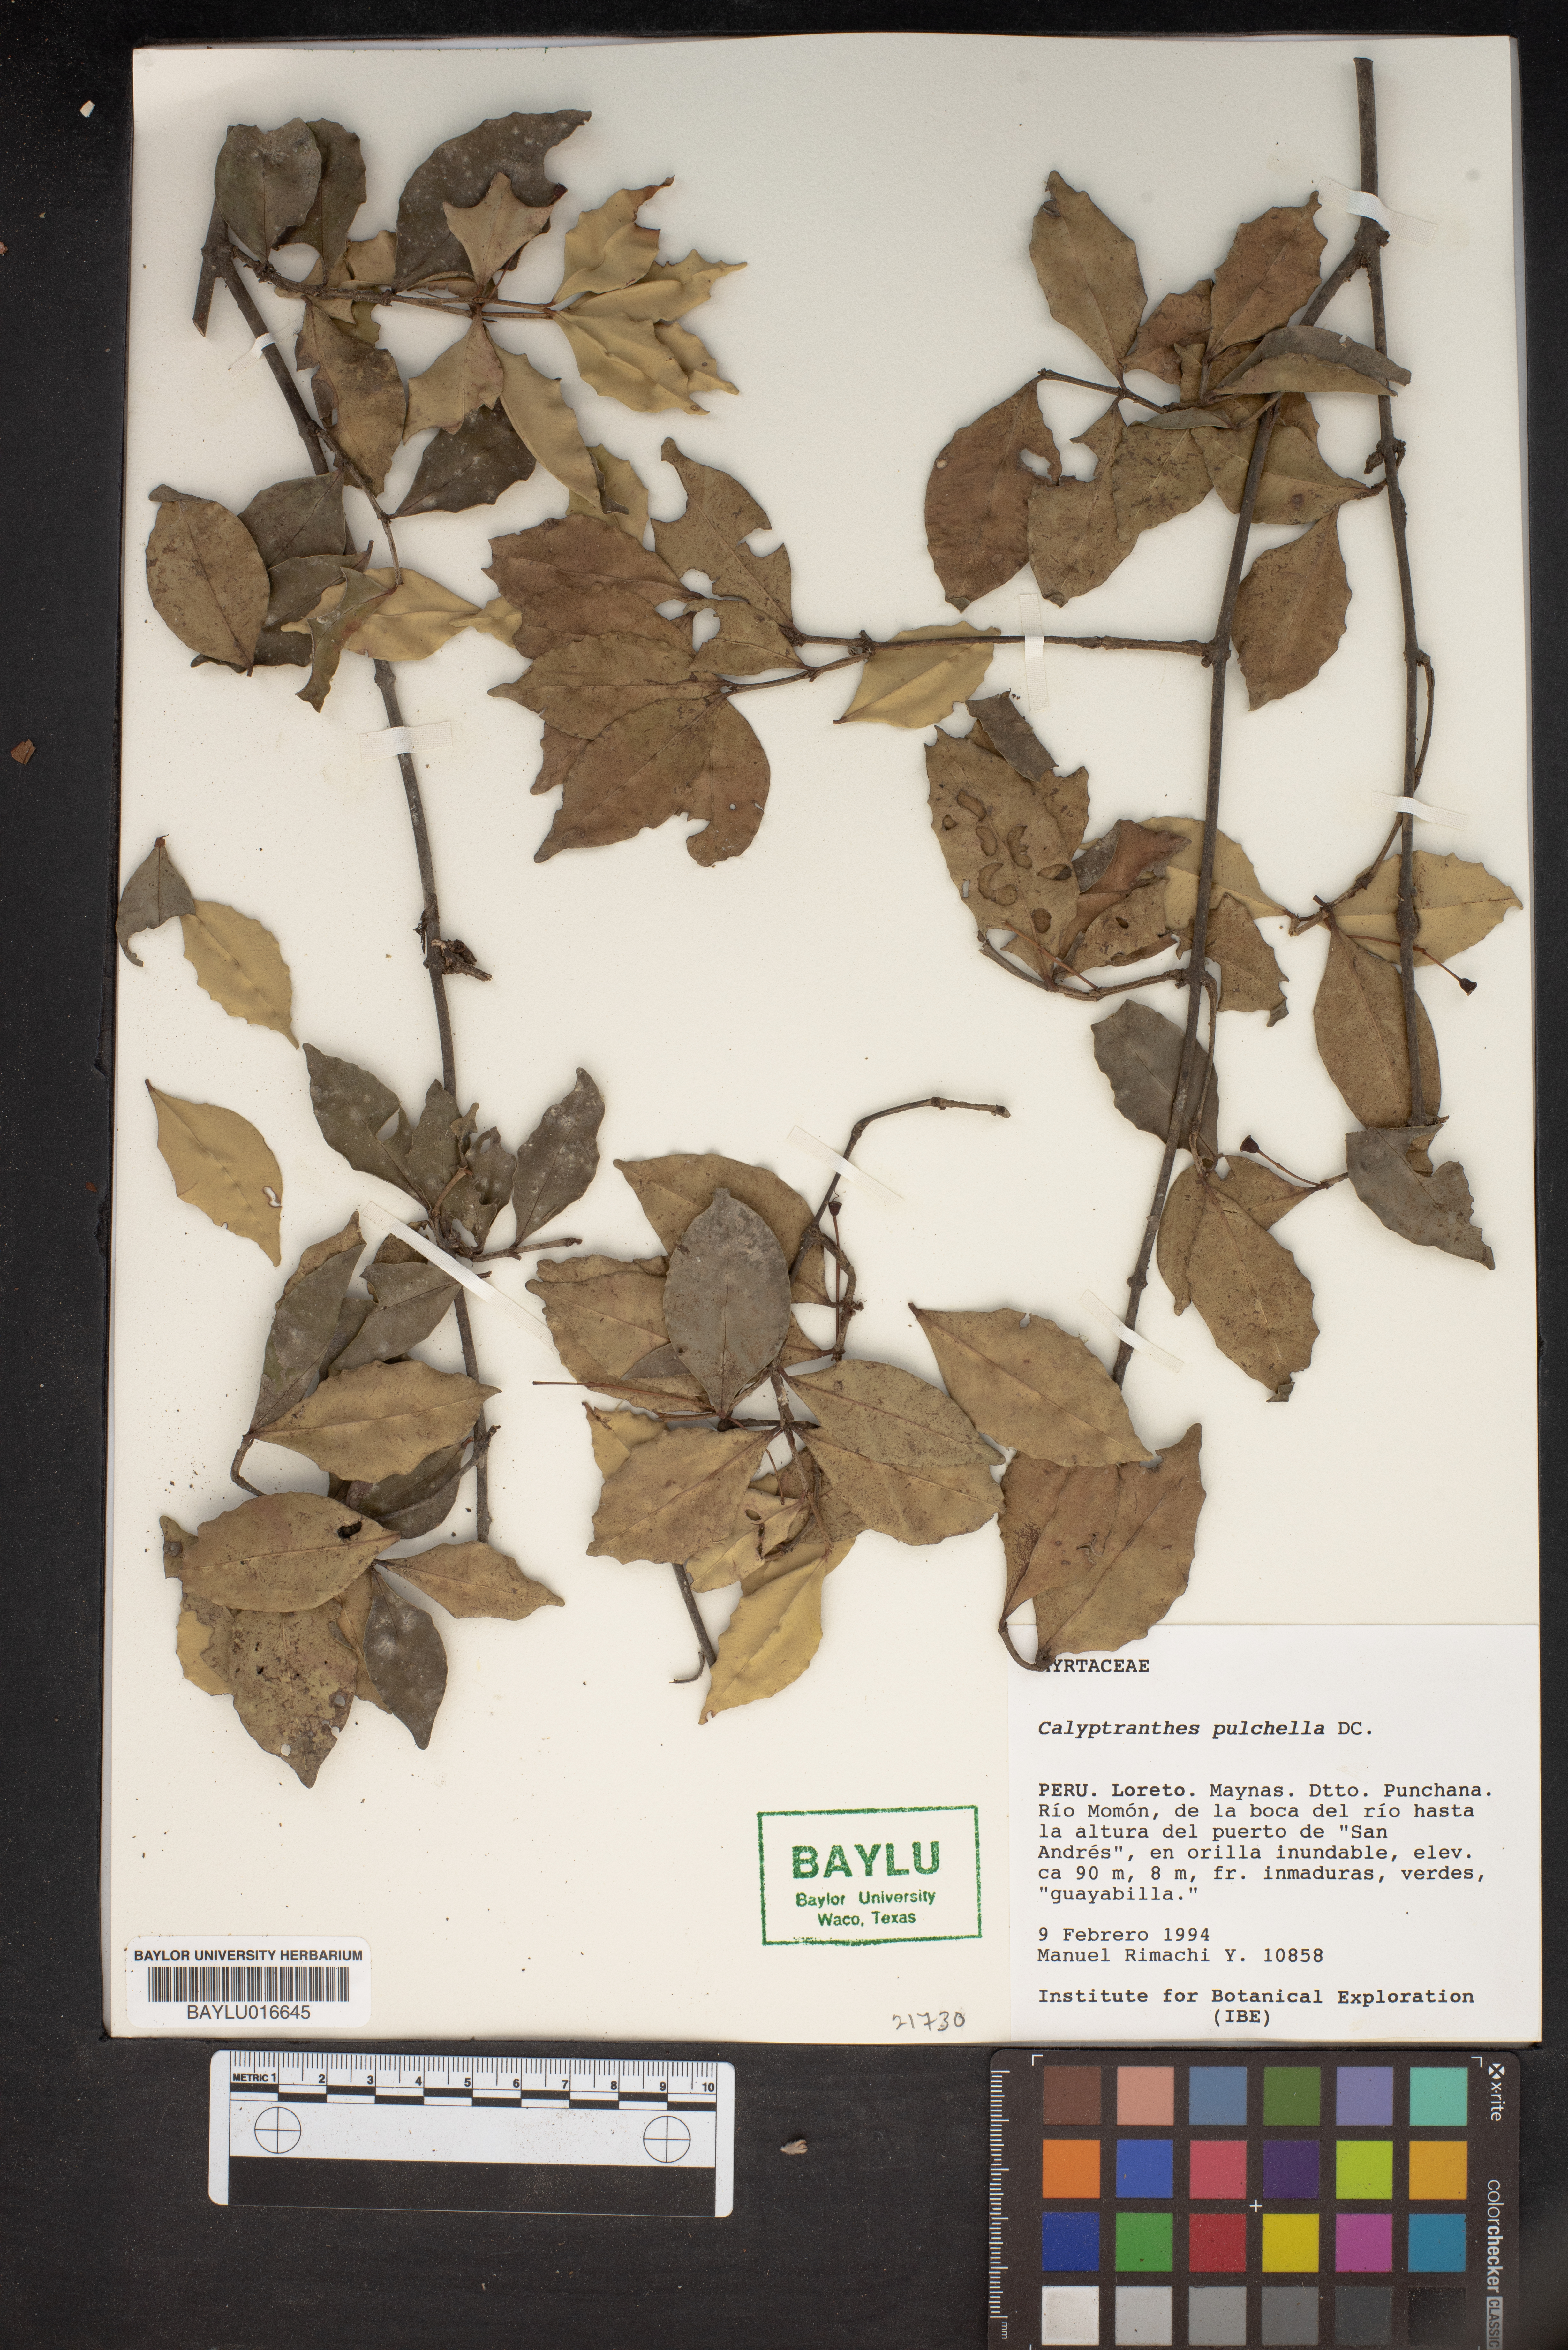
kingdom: Plantae
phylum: Tracheophyta
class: Magnoliopsida
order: Myrtales
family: Myrtaceae
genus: Myrcia
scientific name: Myrcia pulchella
